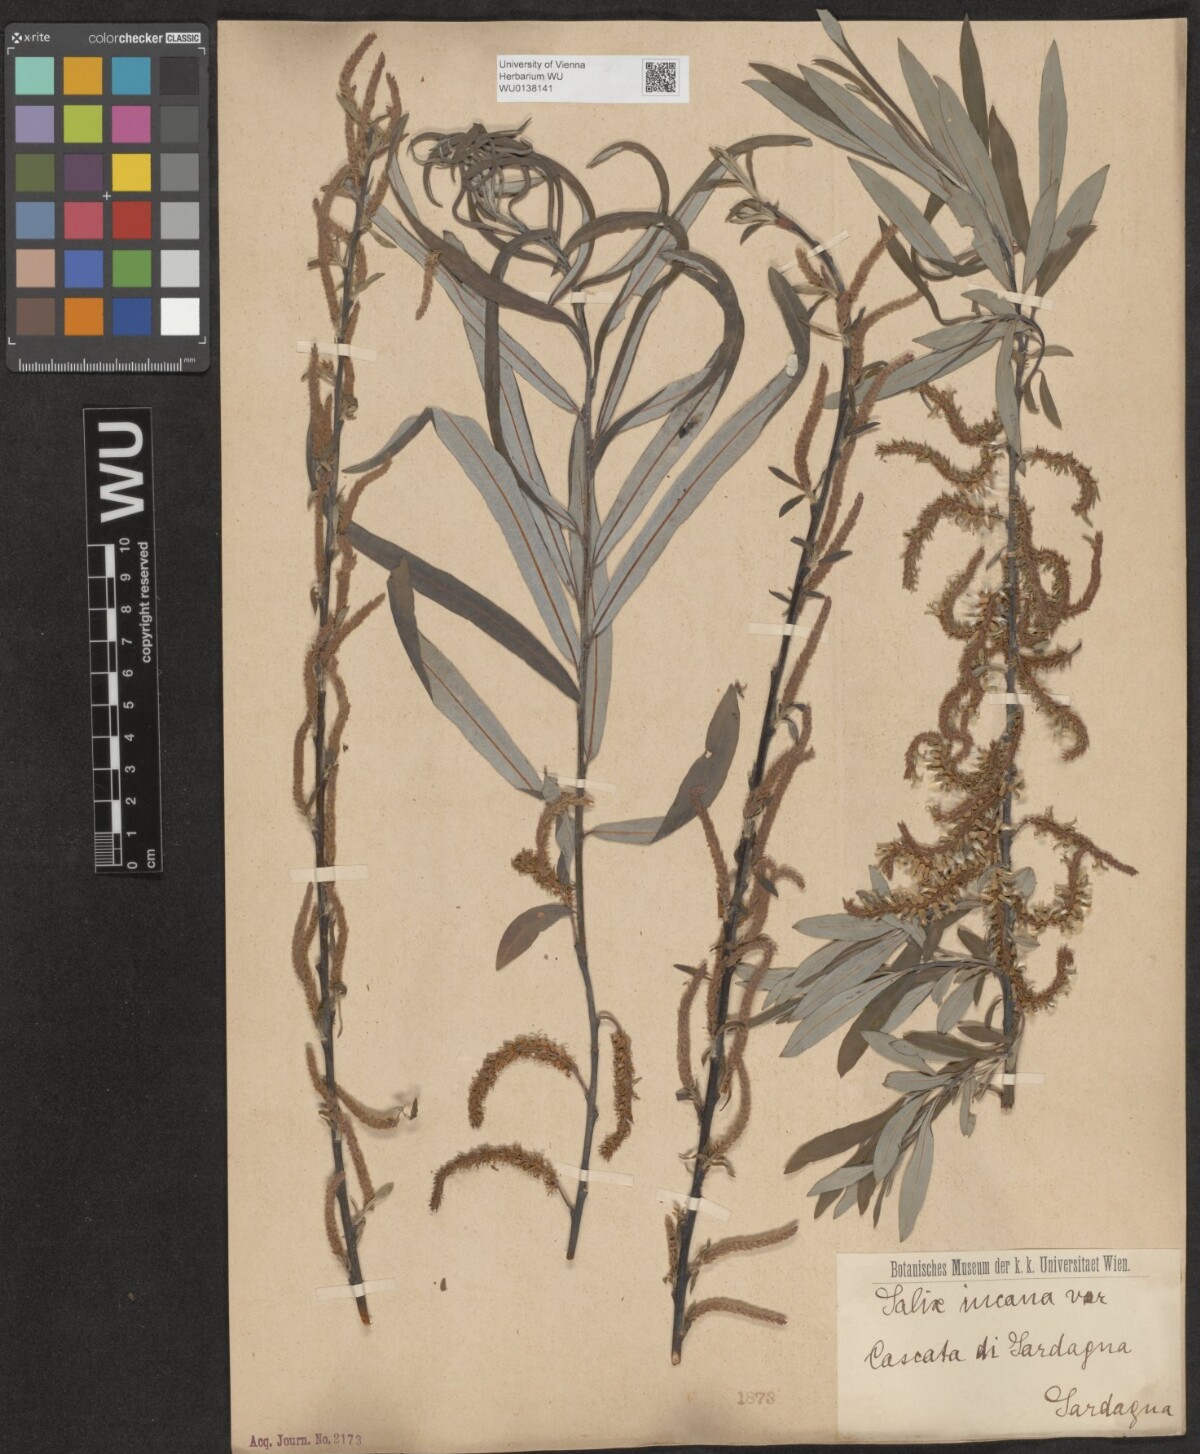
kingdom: Plantae
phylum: Tracheophyta
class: Magnoliopsida
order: Malpighiales
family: Salicaceae
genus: Salix
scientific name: Salix eleagnos
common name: Elaeagnus willow
